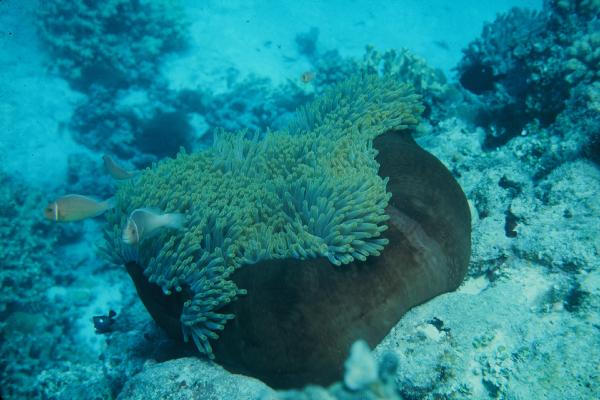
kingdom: Animalia
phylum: Chordata
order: Perciformes
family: Pomacentridae
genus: Amphiprion
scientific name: Amphiprion perideraion
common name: Pink anemonefish
